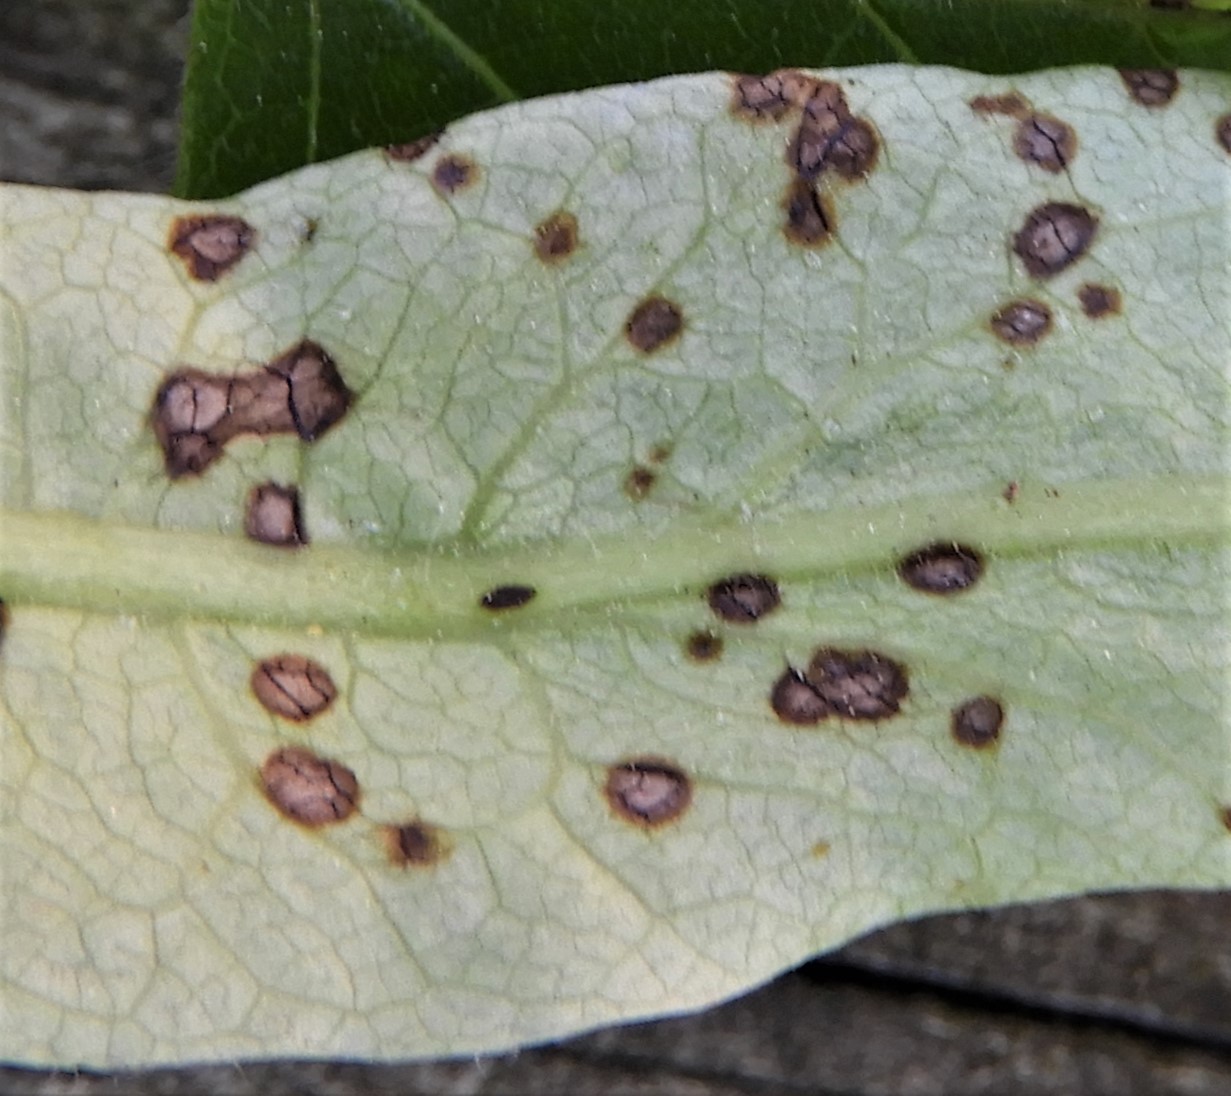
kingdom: Fungi
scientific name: Fungi
